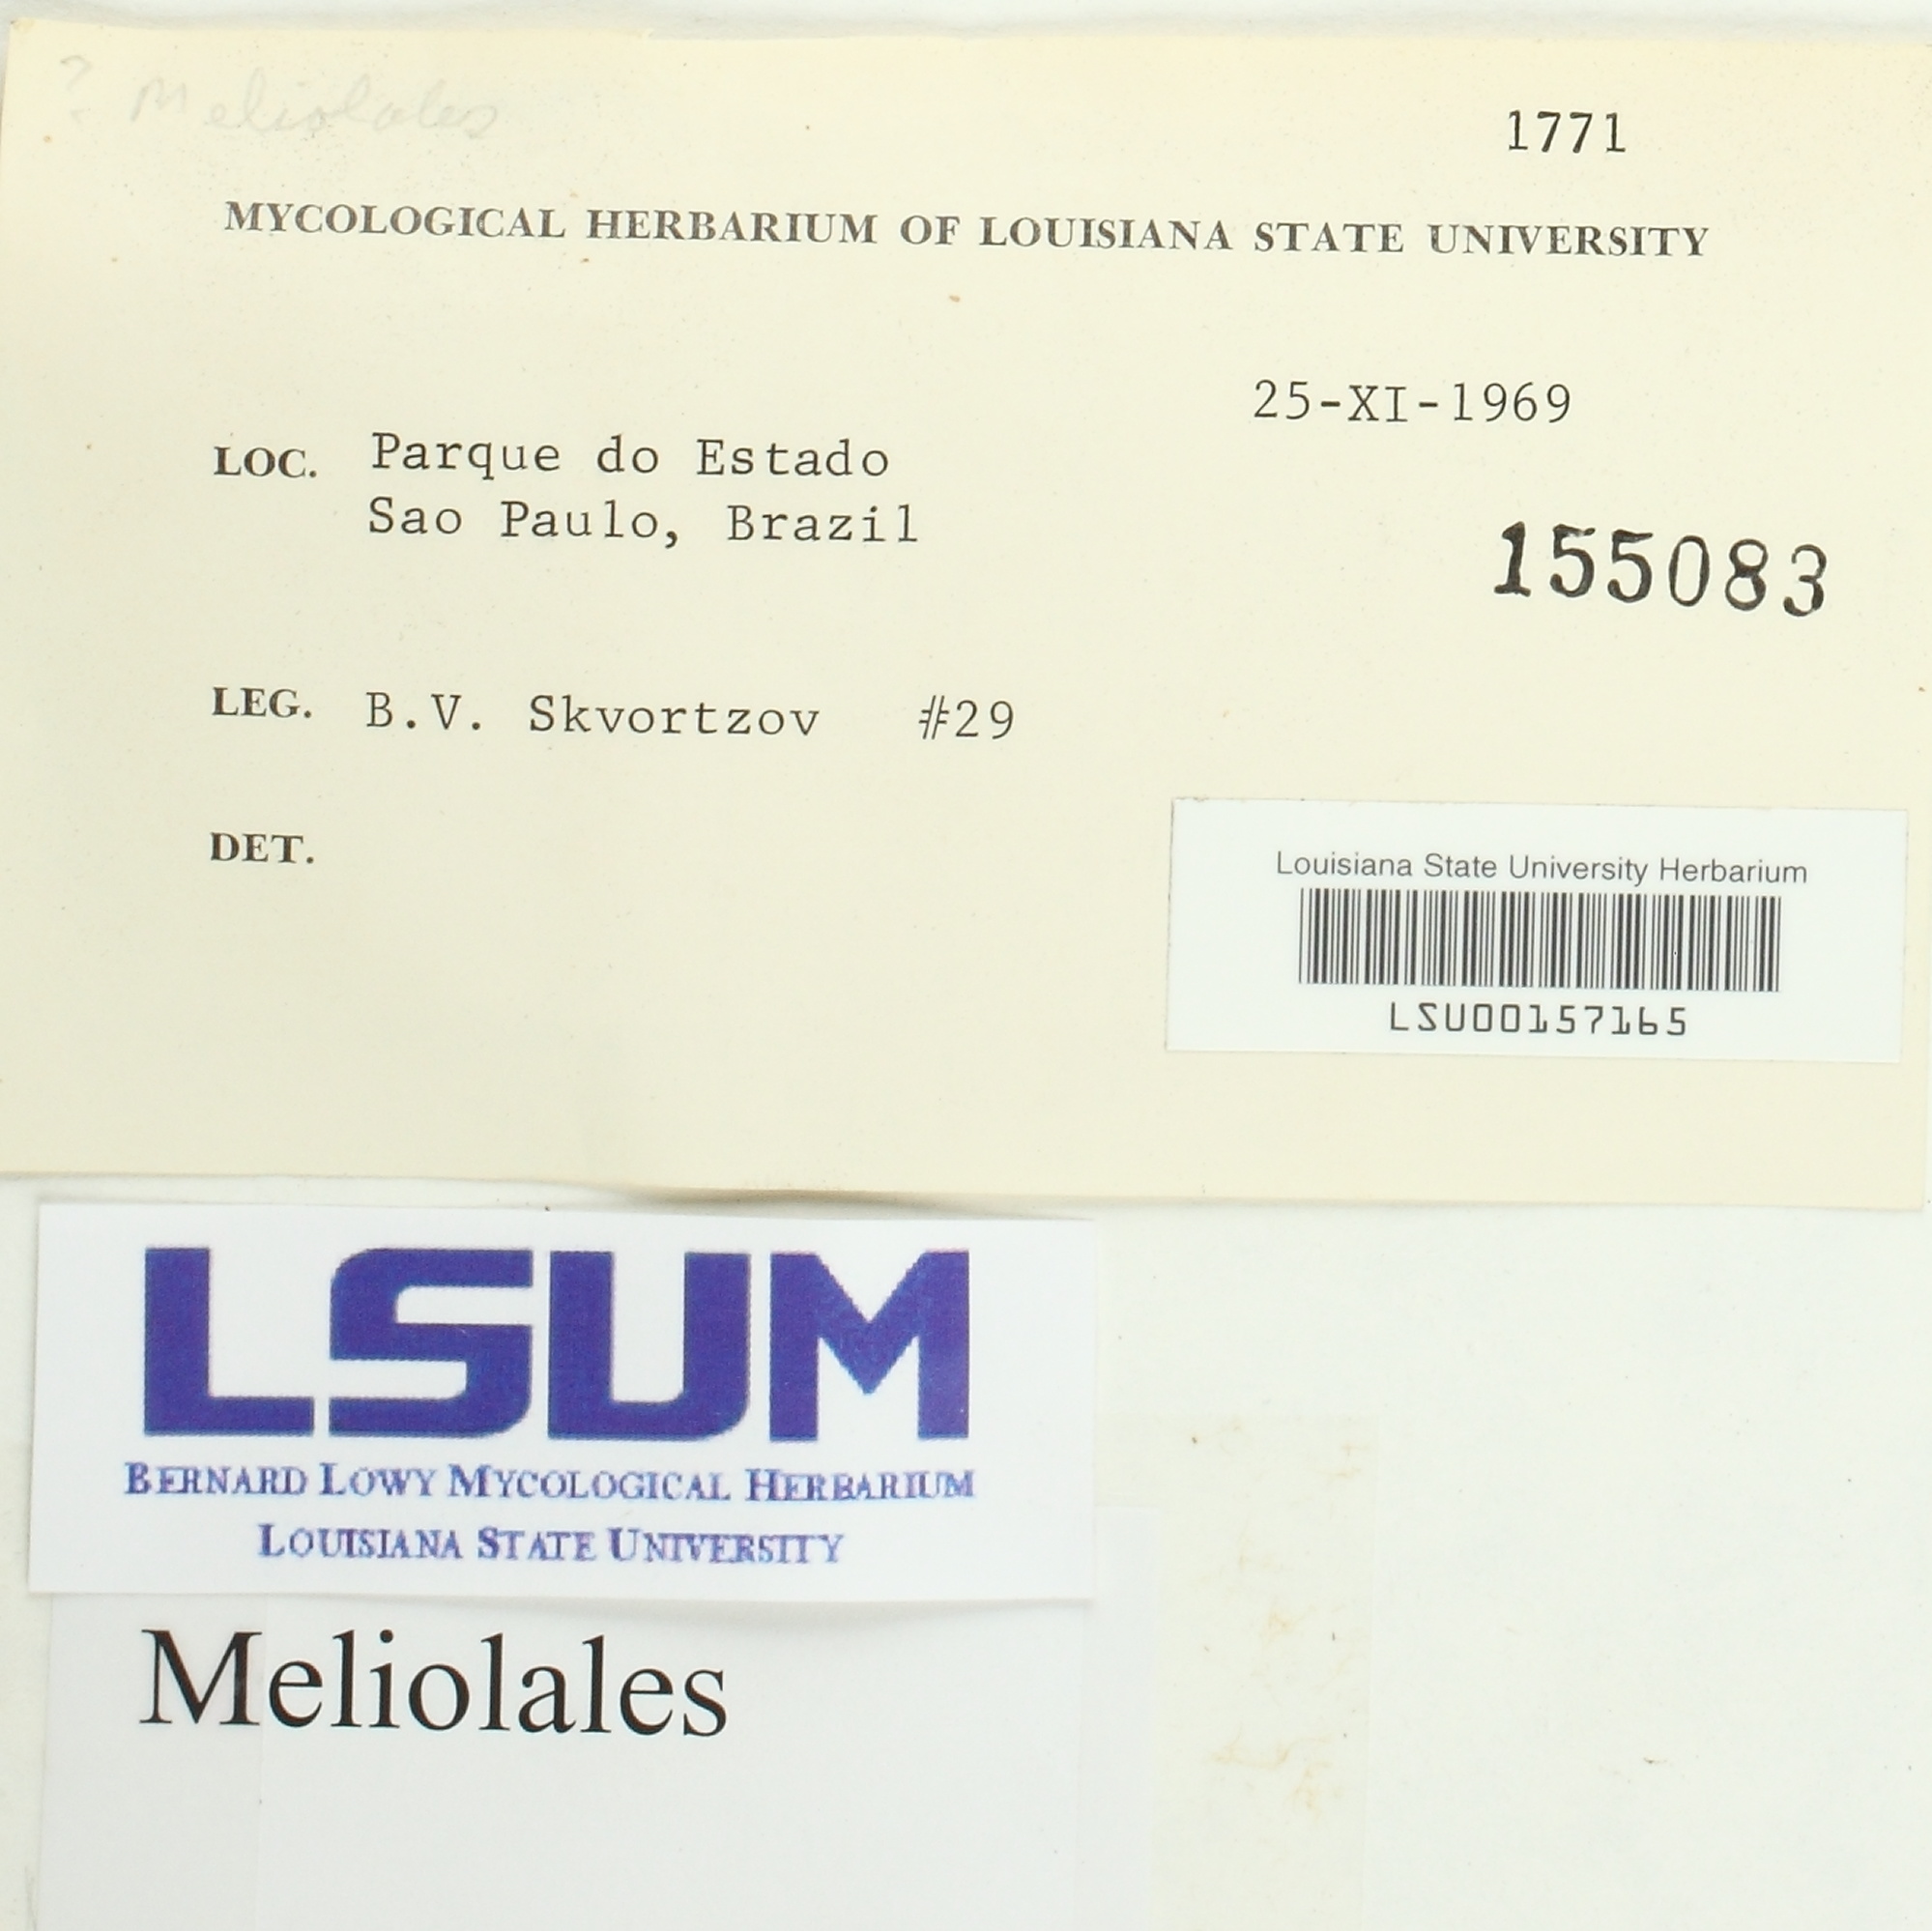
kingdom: Fungi
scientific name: Fungi
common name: Fungi
